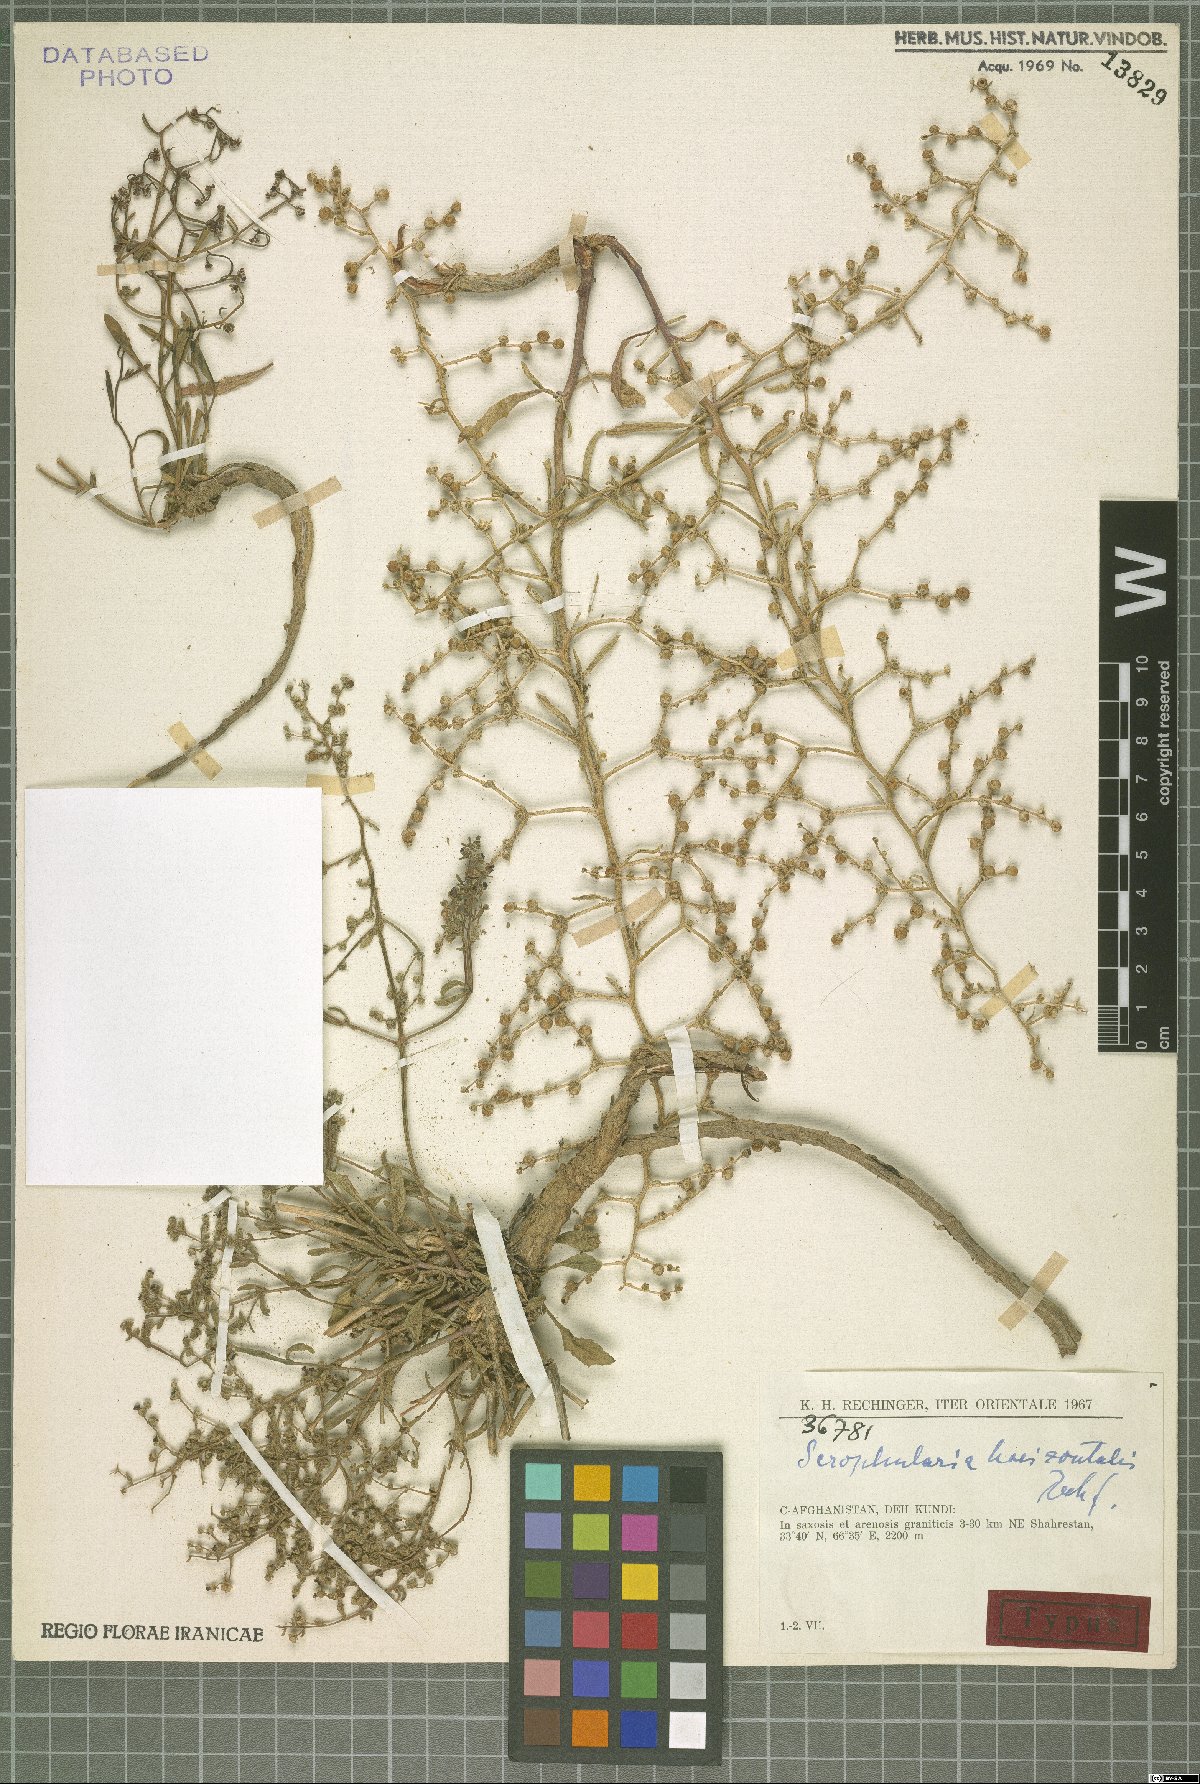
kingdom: Plantae
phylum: Tracheophyta
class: Magnoliopsida
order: Lamiales
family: Scrophulariaceae
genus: Scrophularia
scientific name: Scrophularia horizontalis
